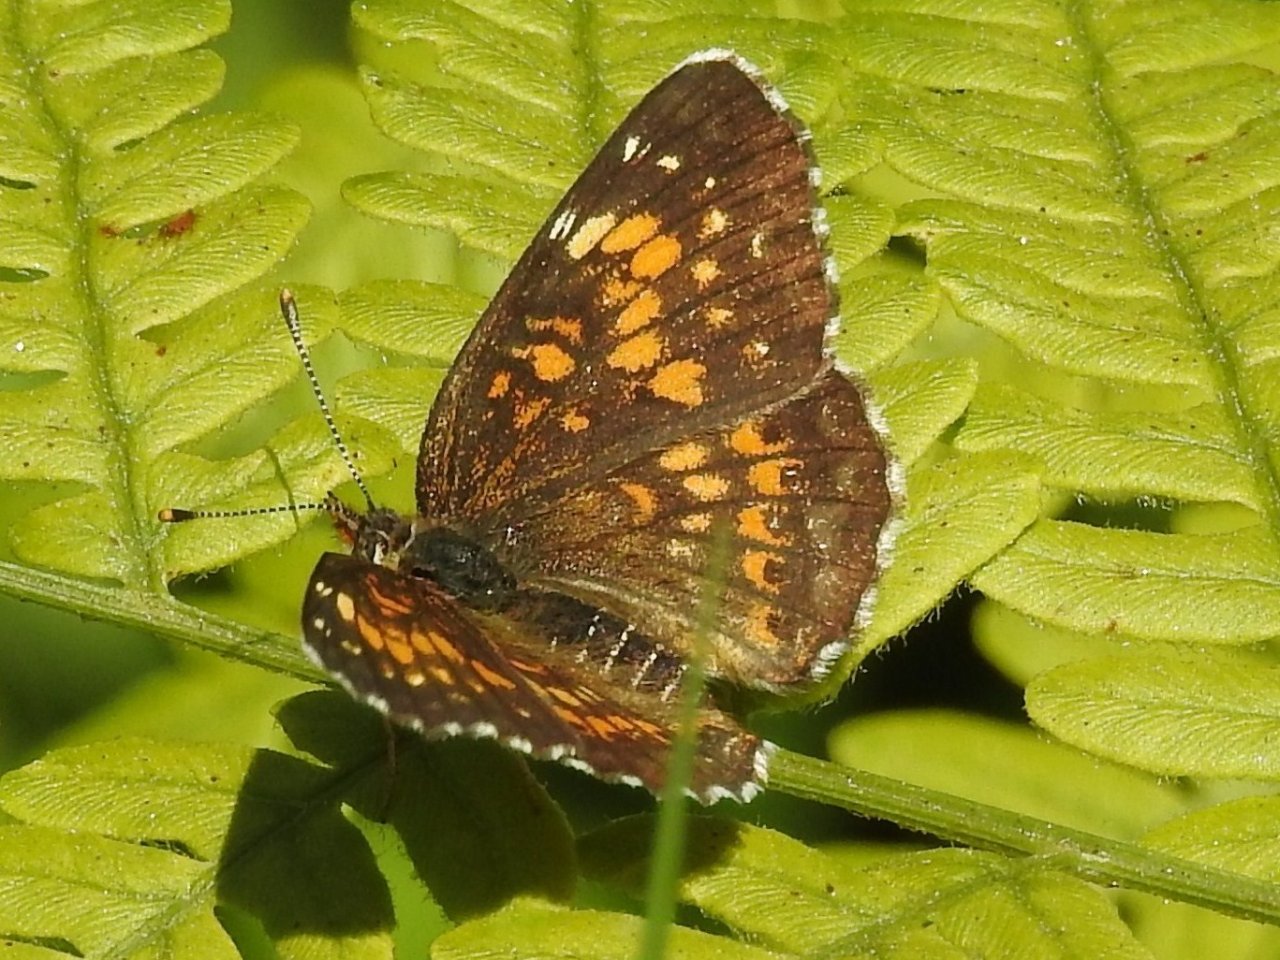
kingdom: Animalia
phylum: Arthropoda
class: Insecta
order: Lepidoptera
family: Nymphalidae
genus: Chlosyne
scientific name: Chlosyne harrisii
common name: Harris's Checkerspot
